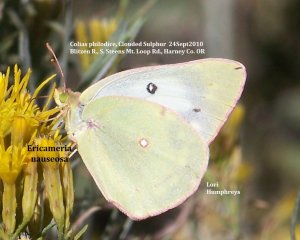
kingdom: Animalia
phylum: Arthropoda
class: Insecta
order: Lepidoptera
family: Pieridae
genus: Colias
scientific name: Colias philodice
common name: Clouded Sulphur
